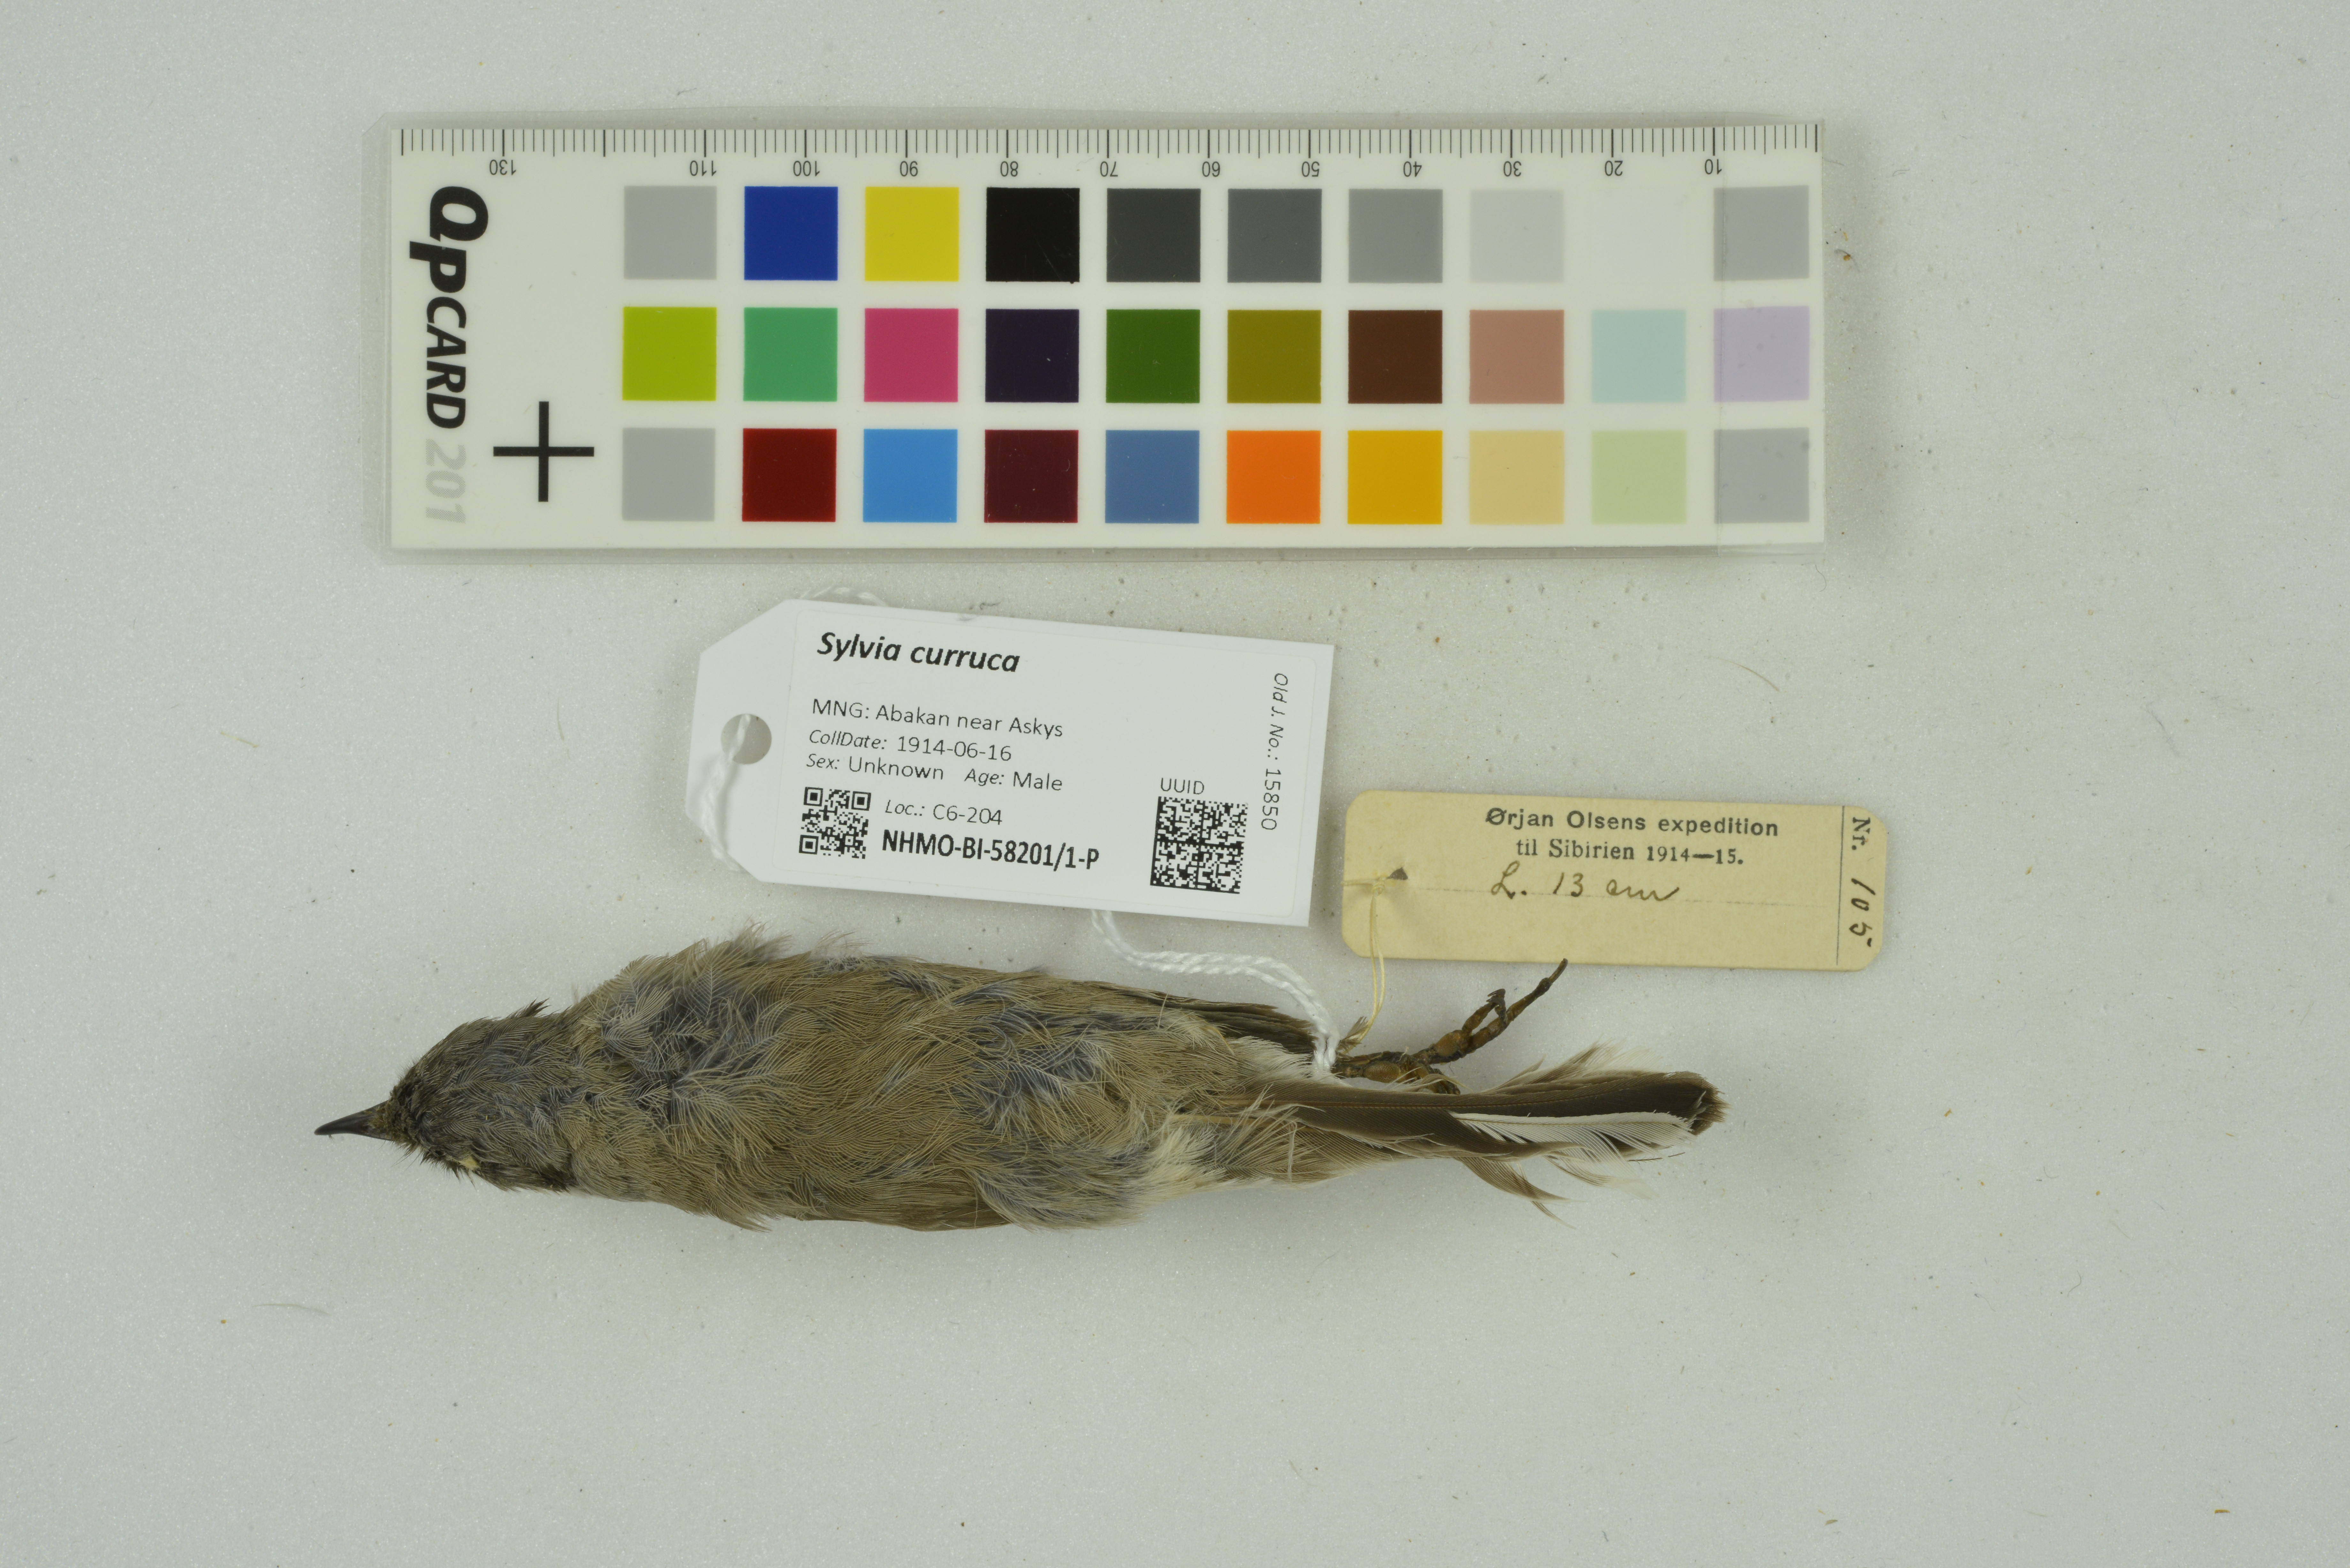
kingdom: Animalia
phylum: Chordata
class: Aves
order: Passeriformes
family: Sylviidae
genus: Sylvia
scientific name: Sylvia curruca
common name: Lesser whitethroat
